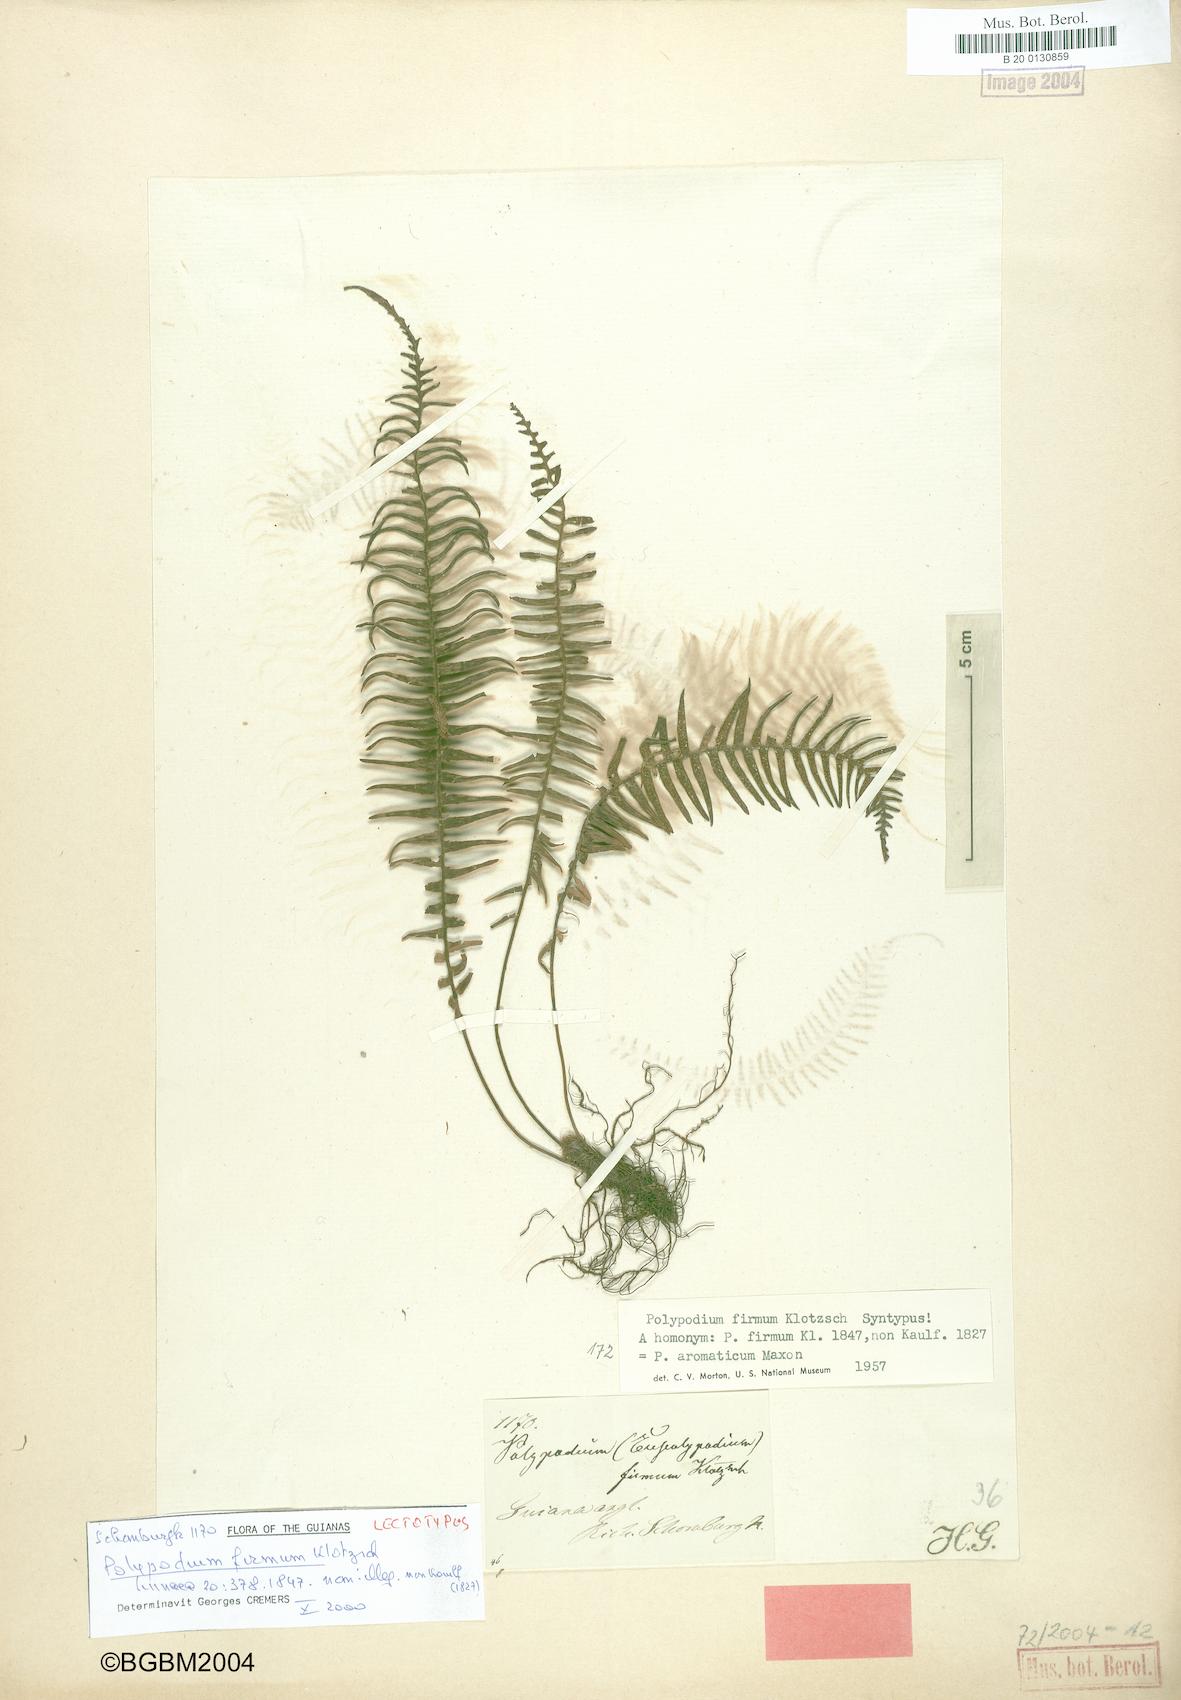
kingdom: Plantae
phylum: Tracheophyta
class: Polypodiopsida
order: Polypodiales
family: Polypodiaceae
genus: Melpomene
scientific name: Melpomene firma
